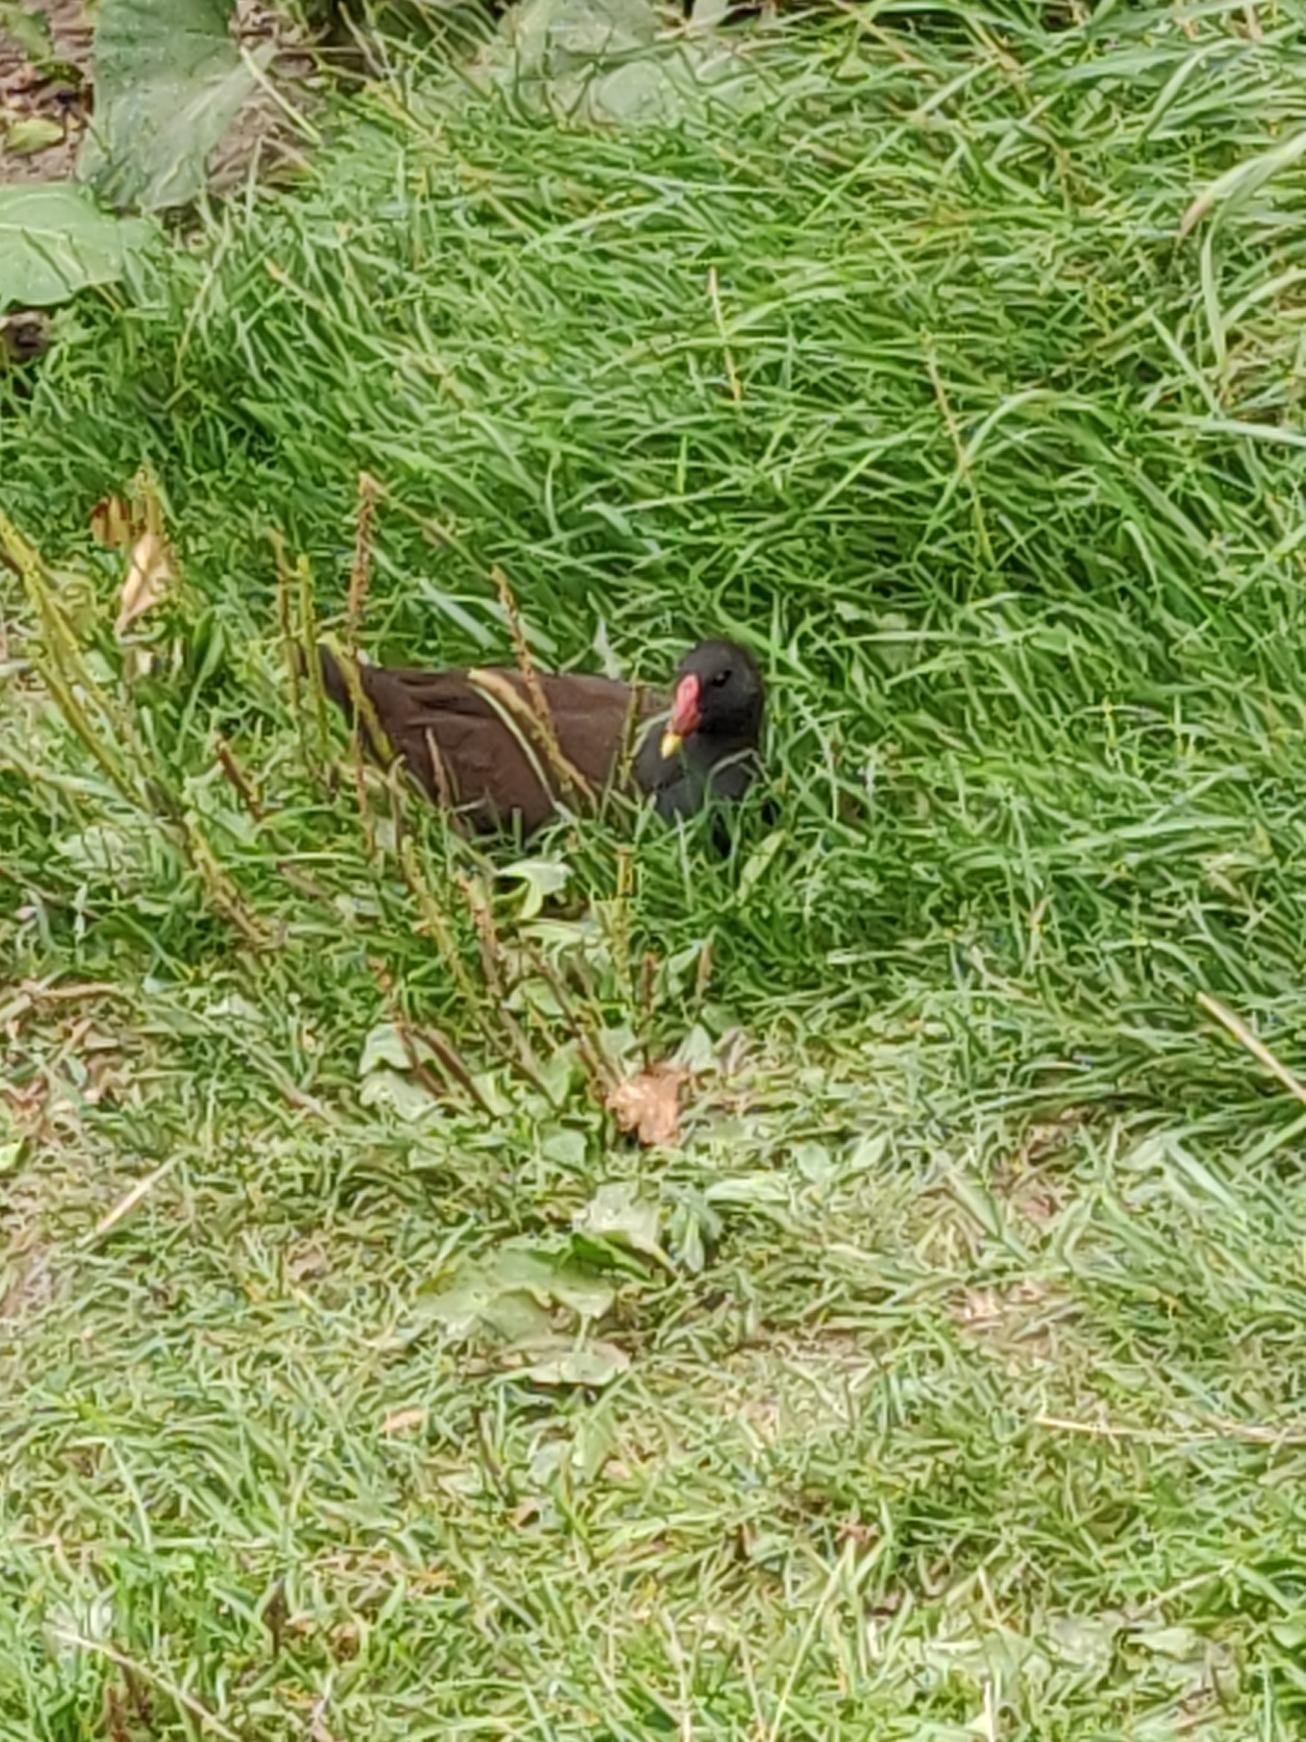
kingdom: Animalia
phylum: Chordata
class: Aves
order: Gruiformes
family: Rallidae
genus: Gallinula
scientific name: Gallinula chloropus
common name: Grønbenet rørhøne
